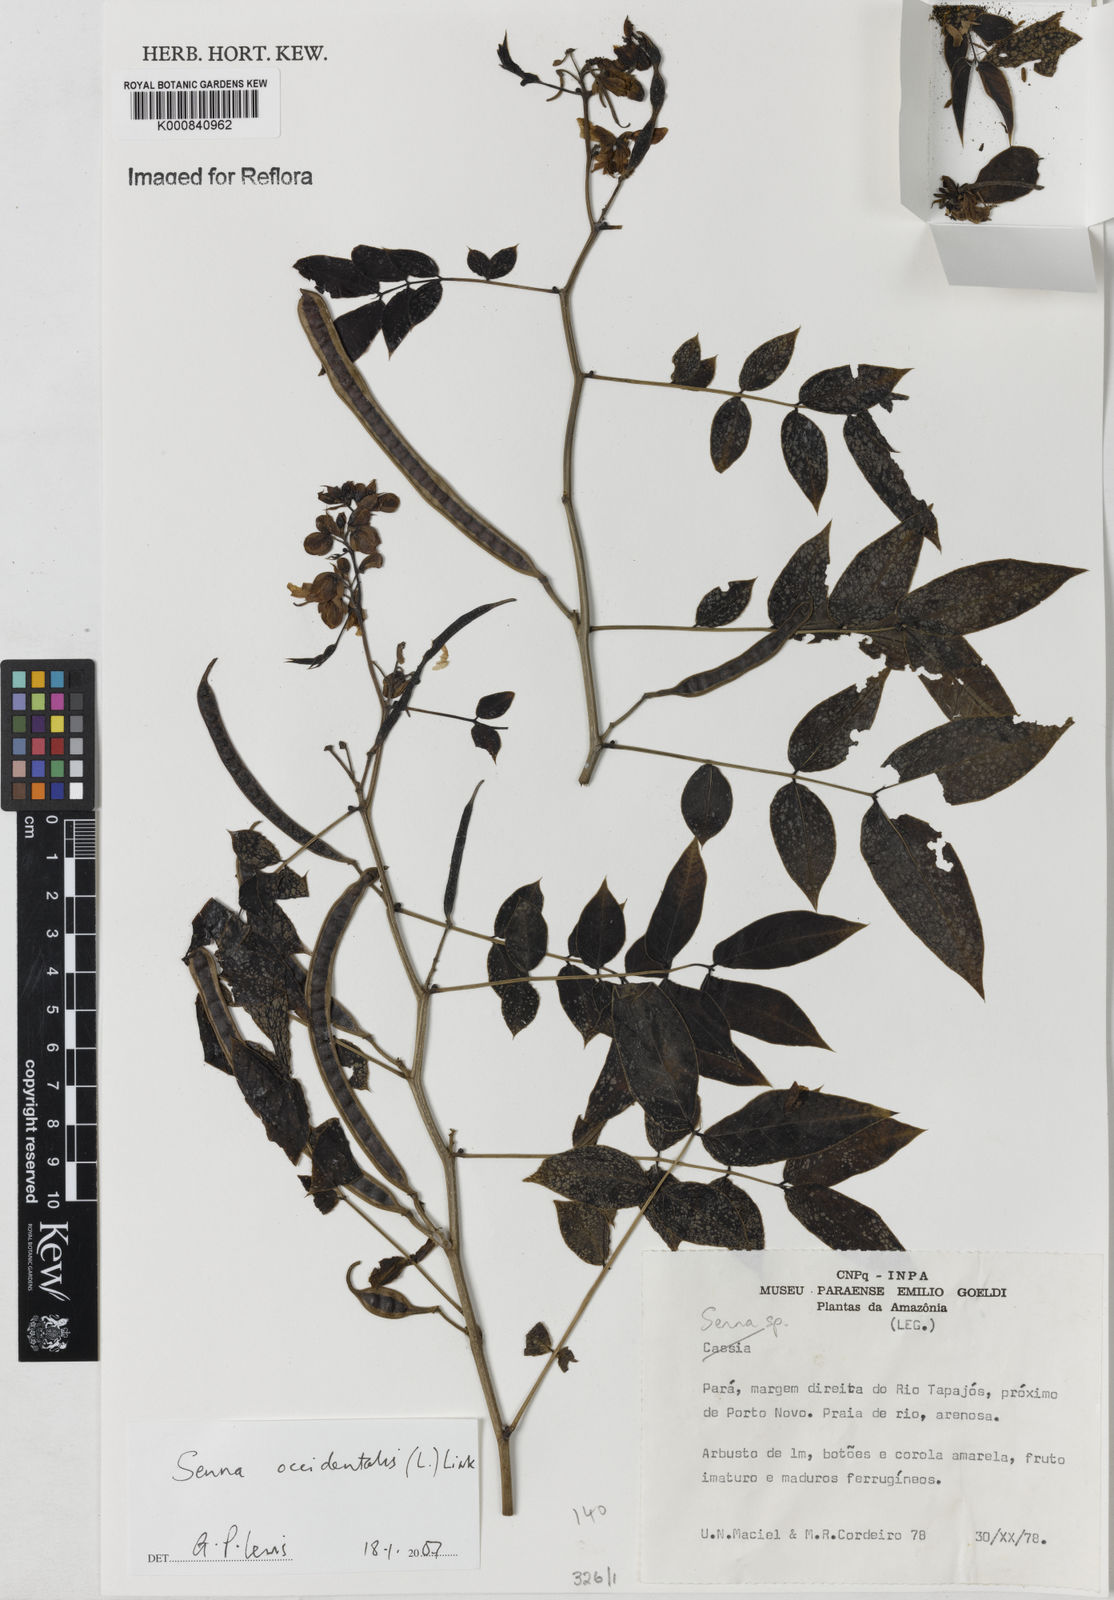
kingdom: Plantae
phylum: Tracheophyta
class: Magnoliopsida
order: Fabales
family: Fabaceae
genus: Senna
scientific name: Senna occidentalis
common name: Septicweed
